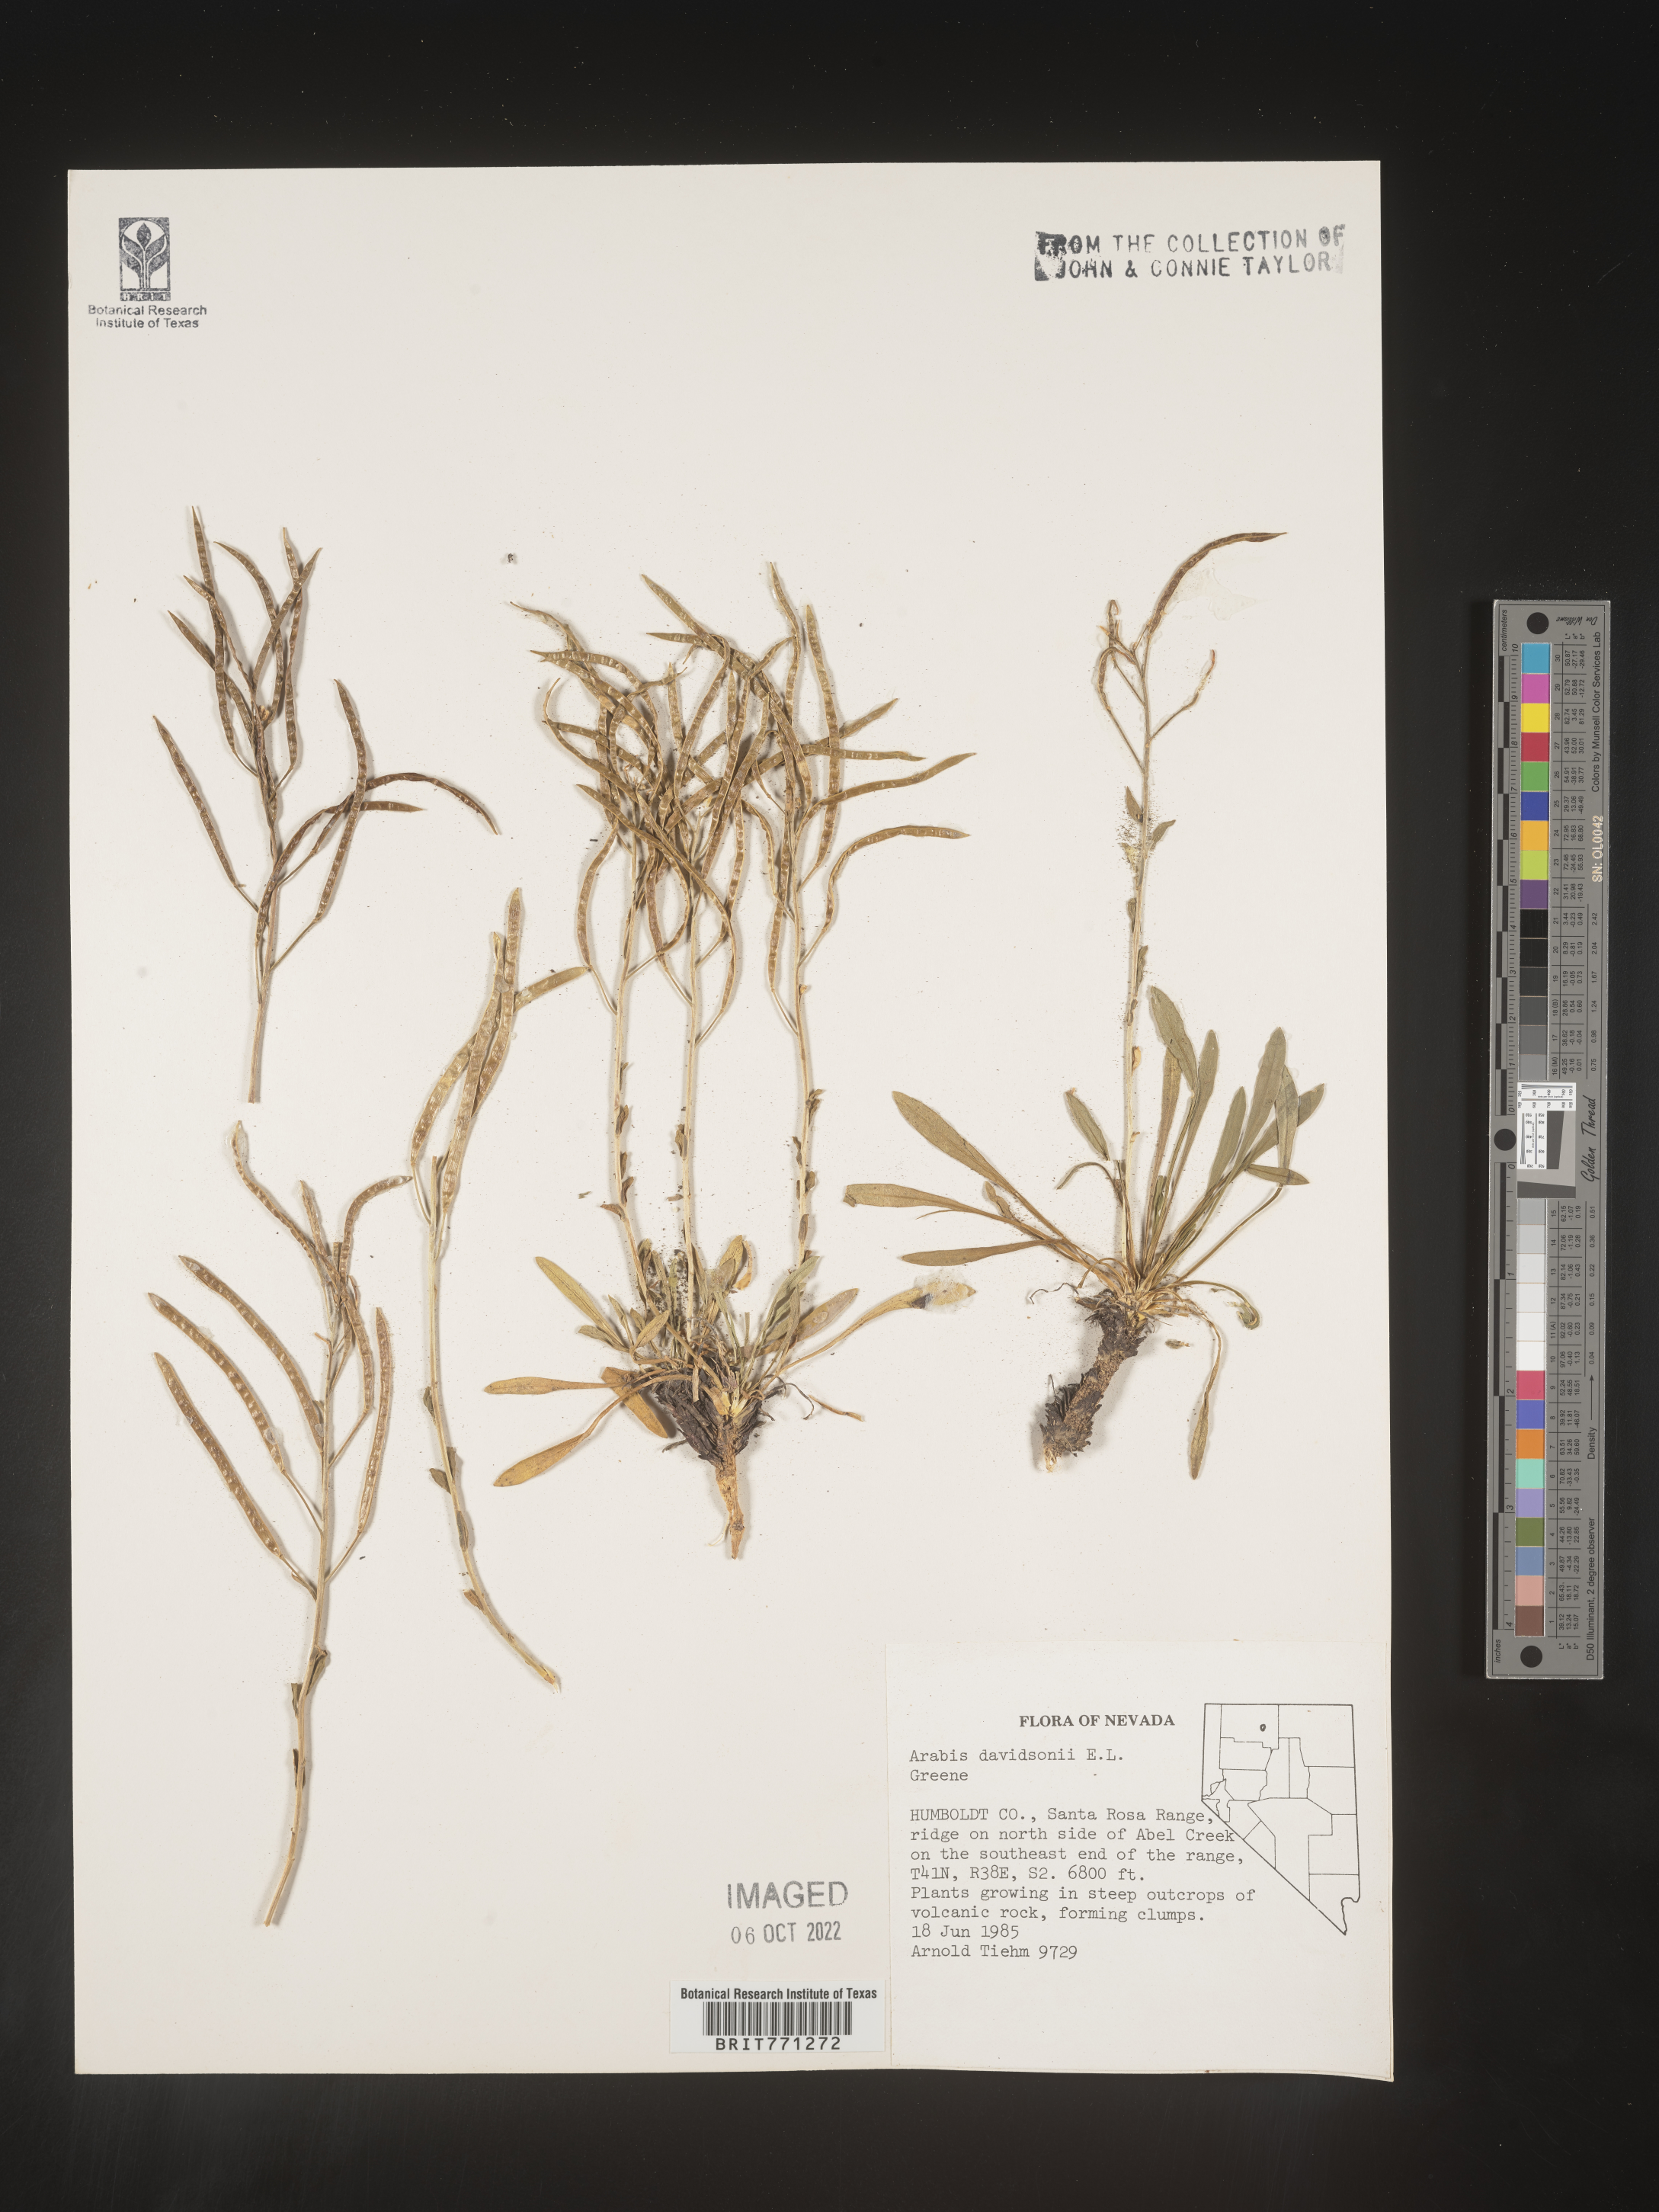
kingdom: Plantae
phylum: Tracheophyta
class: Magnoliopsida
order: Brassicales
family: Brassicaceae
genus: Arabis
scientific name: Arabis
